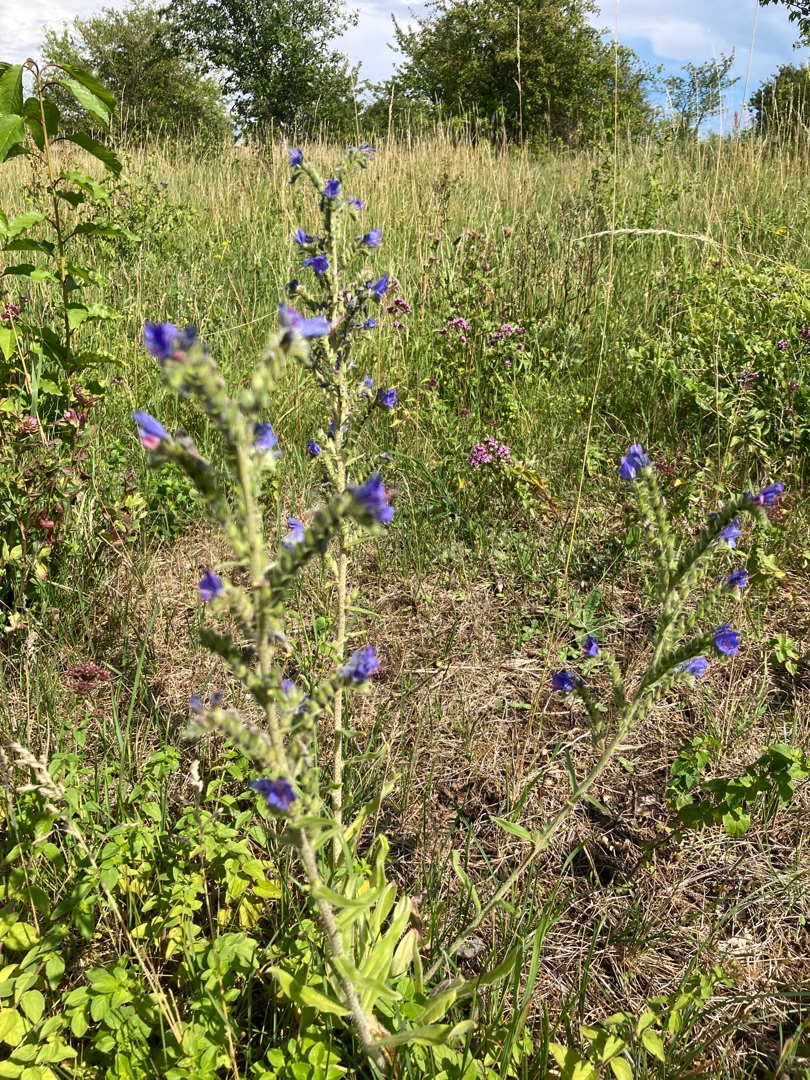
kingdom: Plantae
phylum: Tracheophyta
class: Magnoliopsida
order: Boraginales
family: Boraginaceae
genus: Echium
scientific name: Echium
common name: Slangehovedslægten
